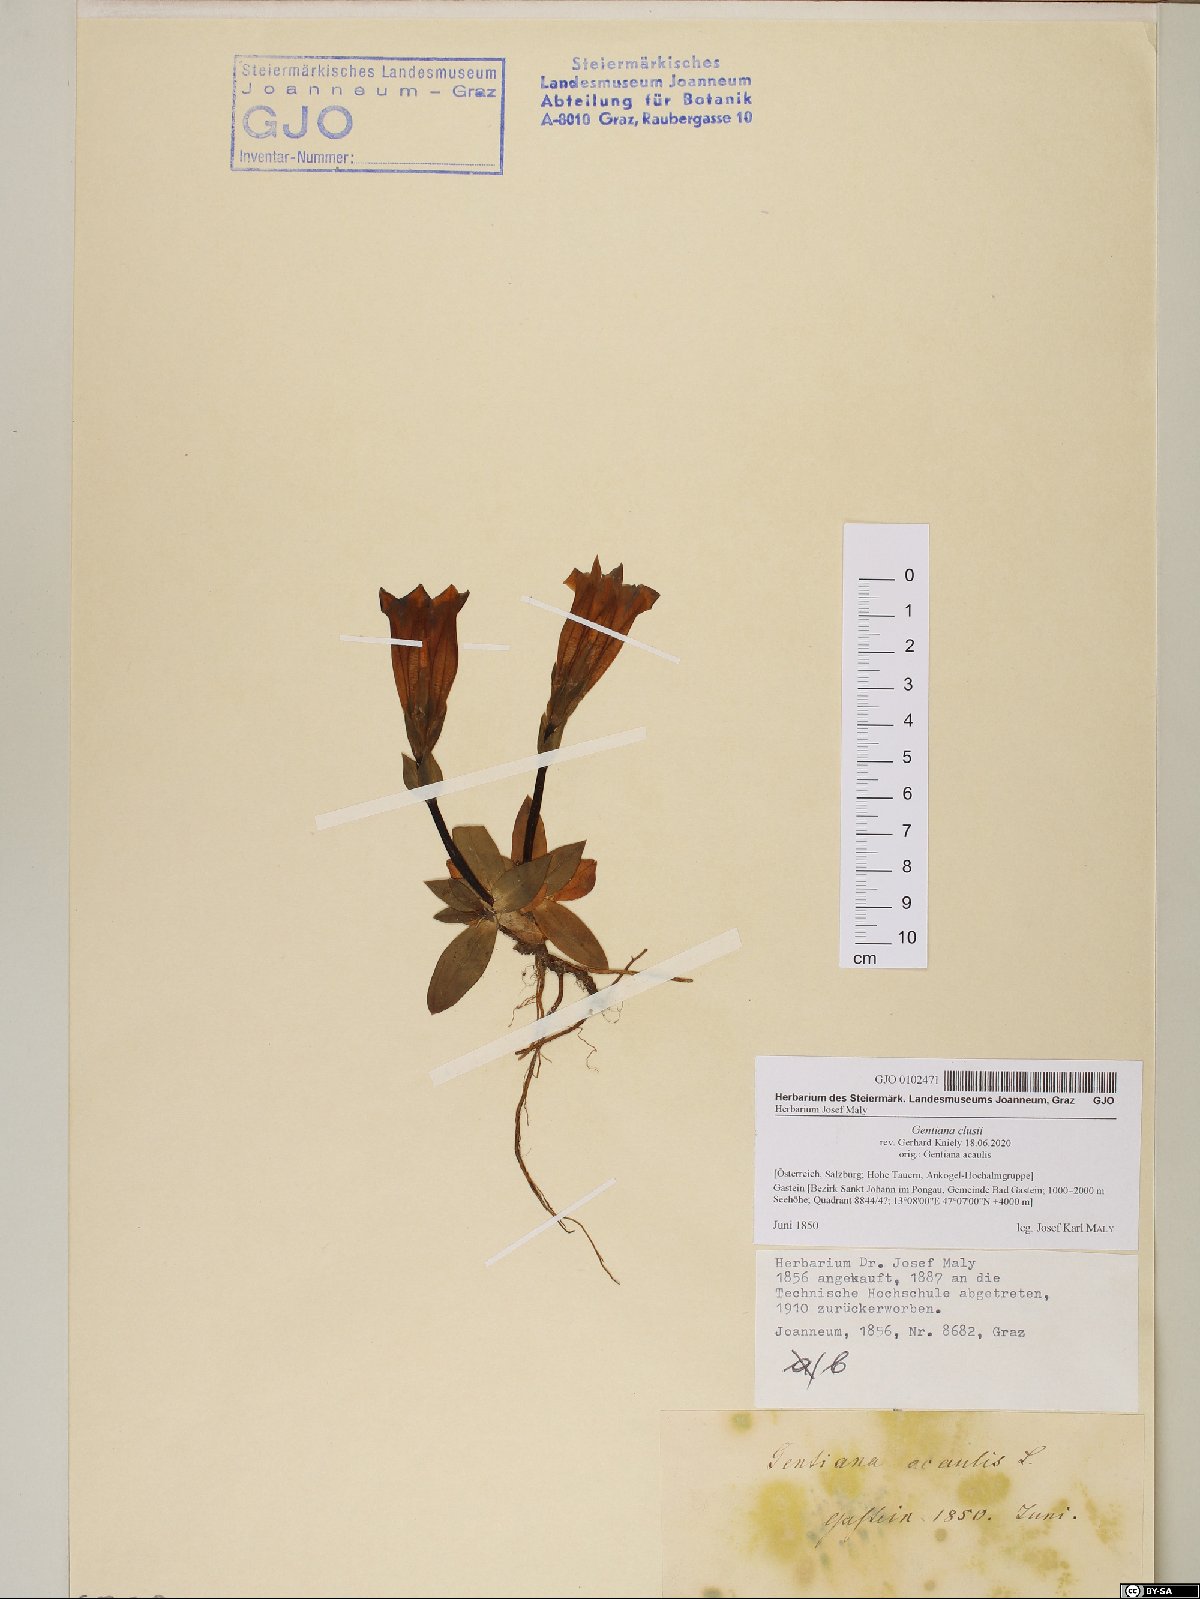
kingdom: Plantae
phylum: Tracheophyta
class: Magnoliopsida
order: Gentianales
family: Gentianaceae
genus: Gentiana
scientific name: Gentiana clusii
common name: Trumpet gentian
